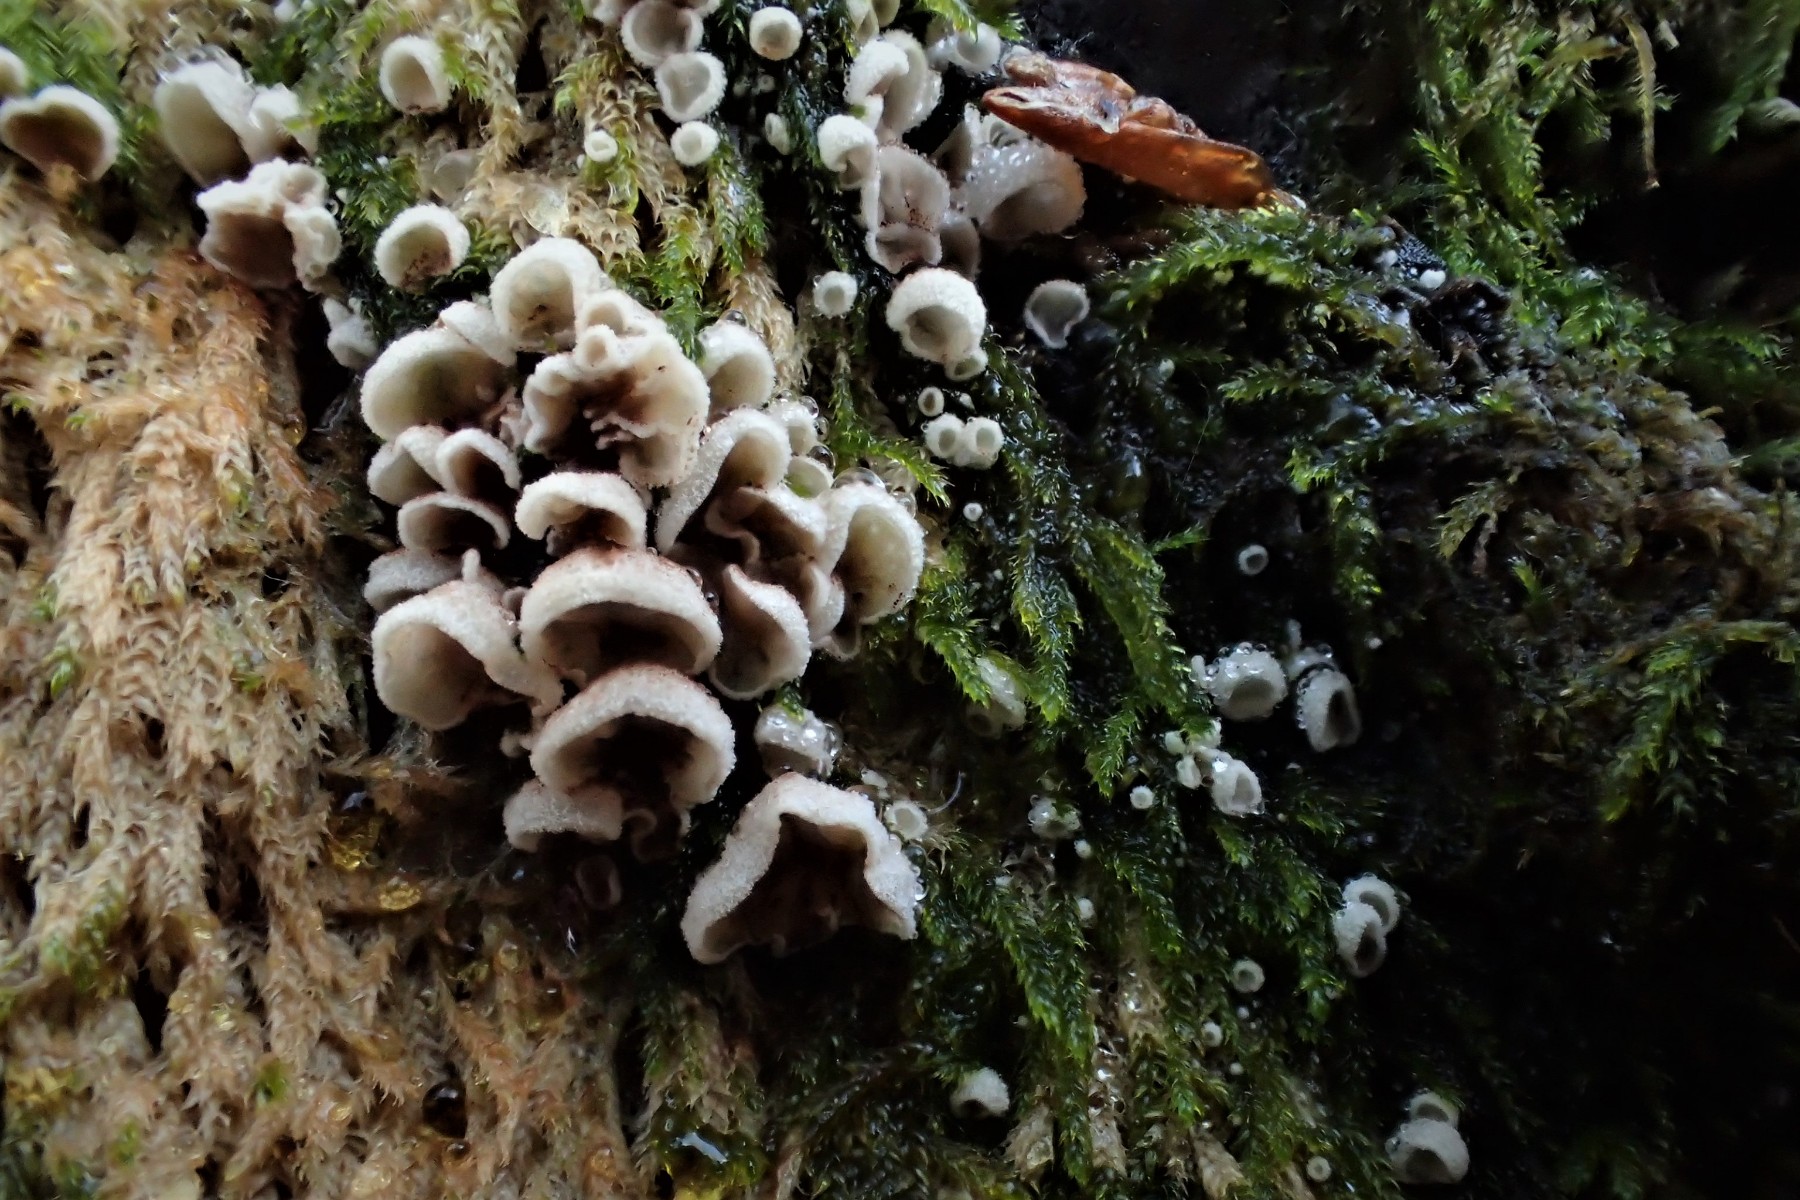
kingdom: Fungi
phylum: Basidiomycota
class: Agaricomycetes
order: Agaricales
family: Chromocyphellaceae
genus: Chromocyphella
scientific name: Chromocyphella muscicola
